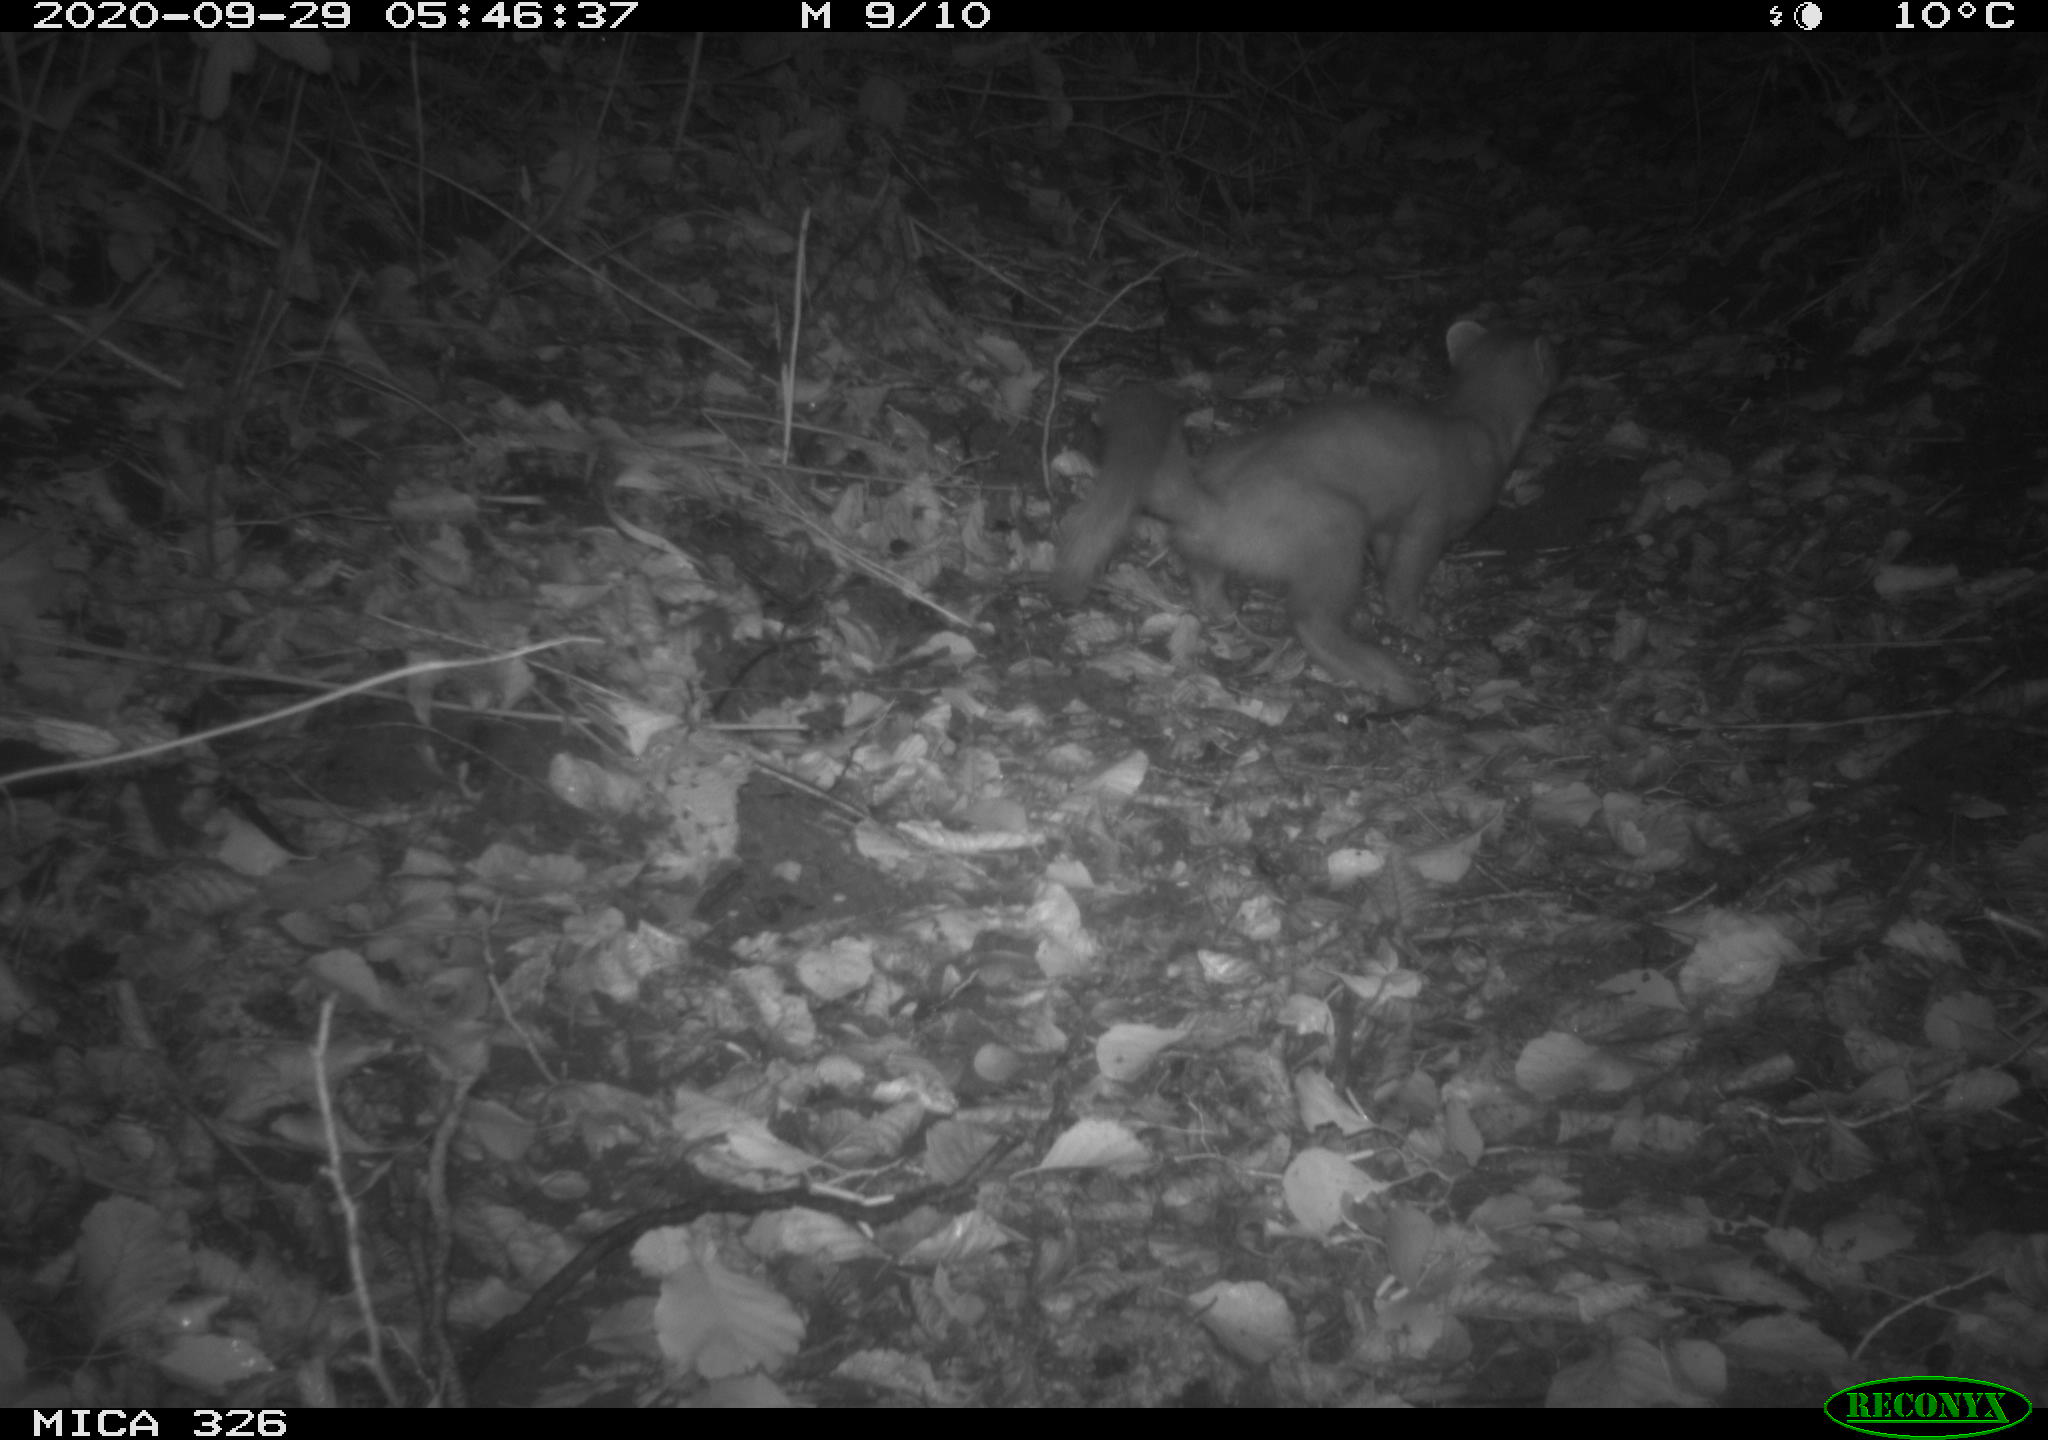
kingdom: Animalia
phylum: Chordata
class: Mammalia
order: Carnivora
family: Mustelidae
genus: Martes
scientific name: Martes martes
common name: European pine marten
